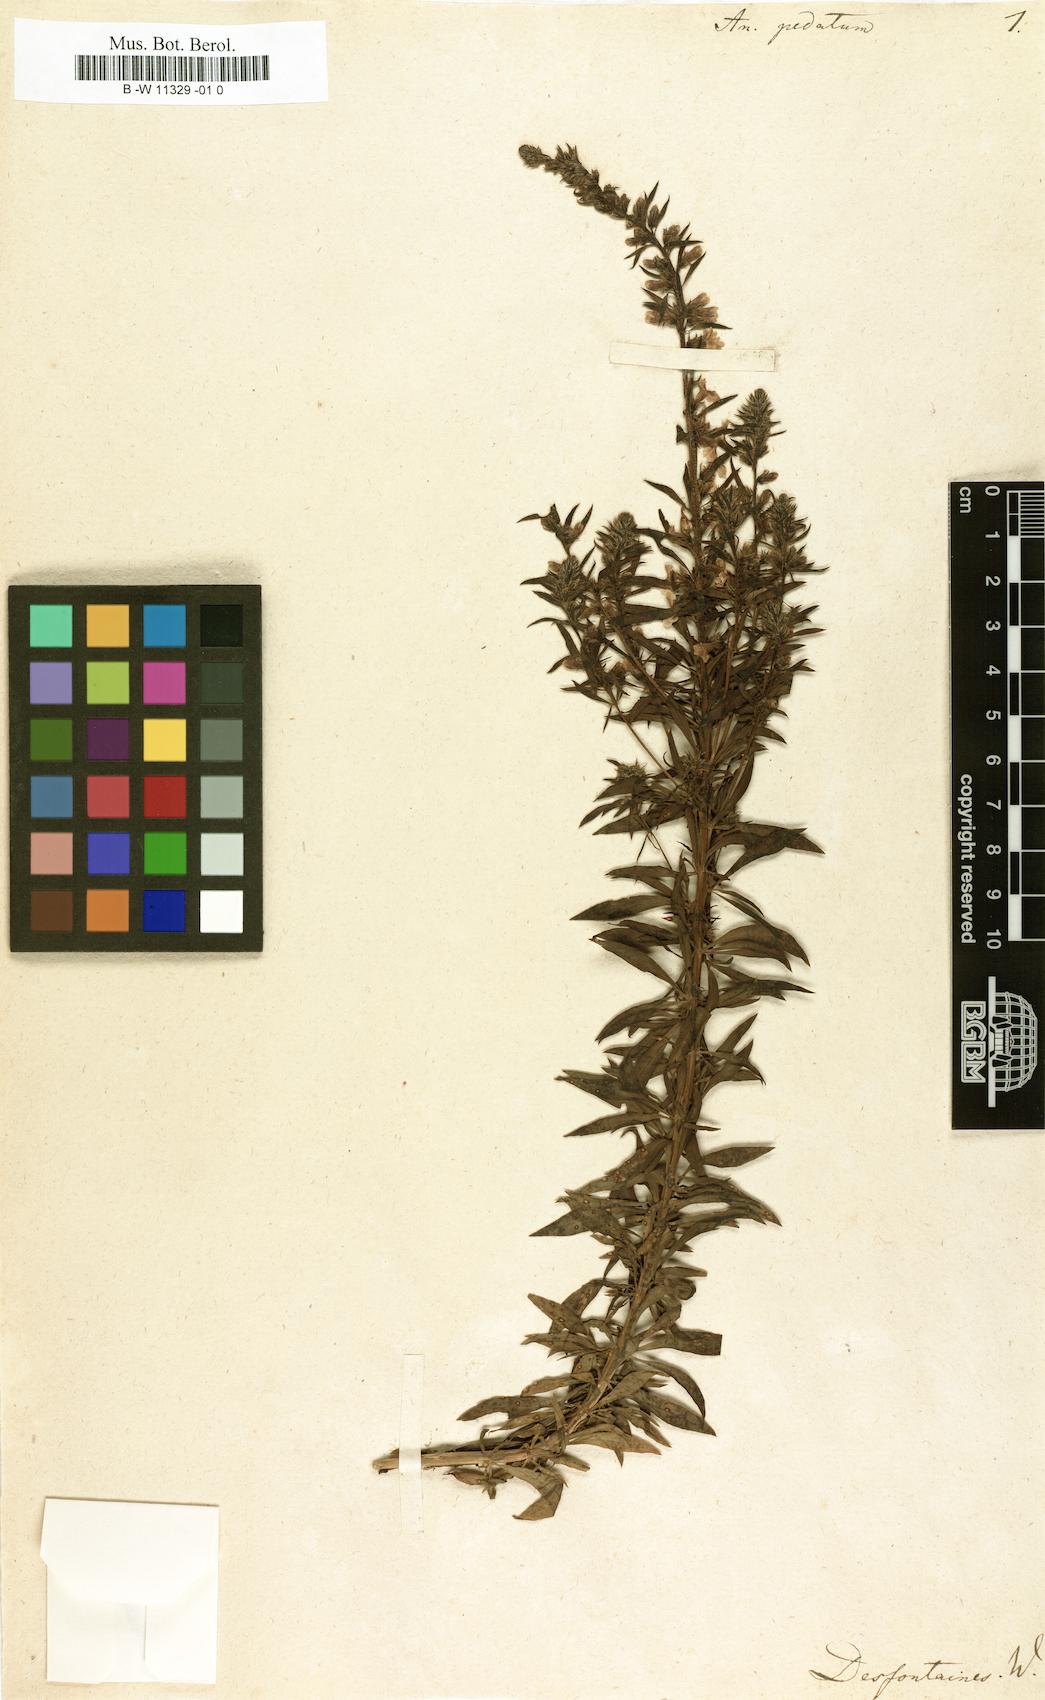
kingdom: Plantae
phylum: Tracheophyta
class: Magnoliopsida
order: Lamiales
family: Plantaginaceae
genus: Anarrhinum
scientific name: Anarrhinum pedatum
